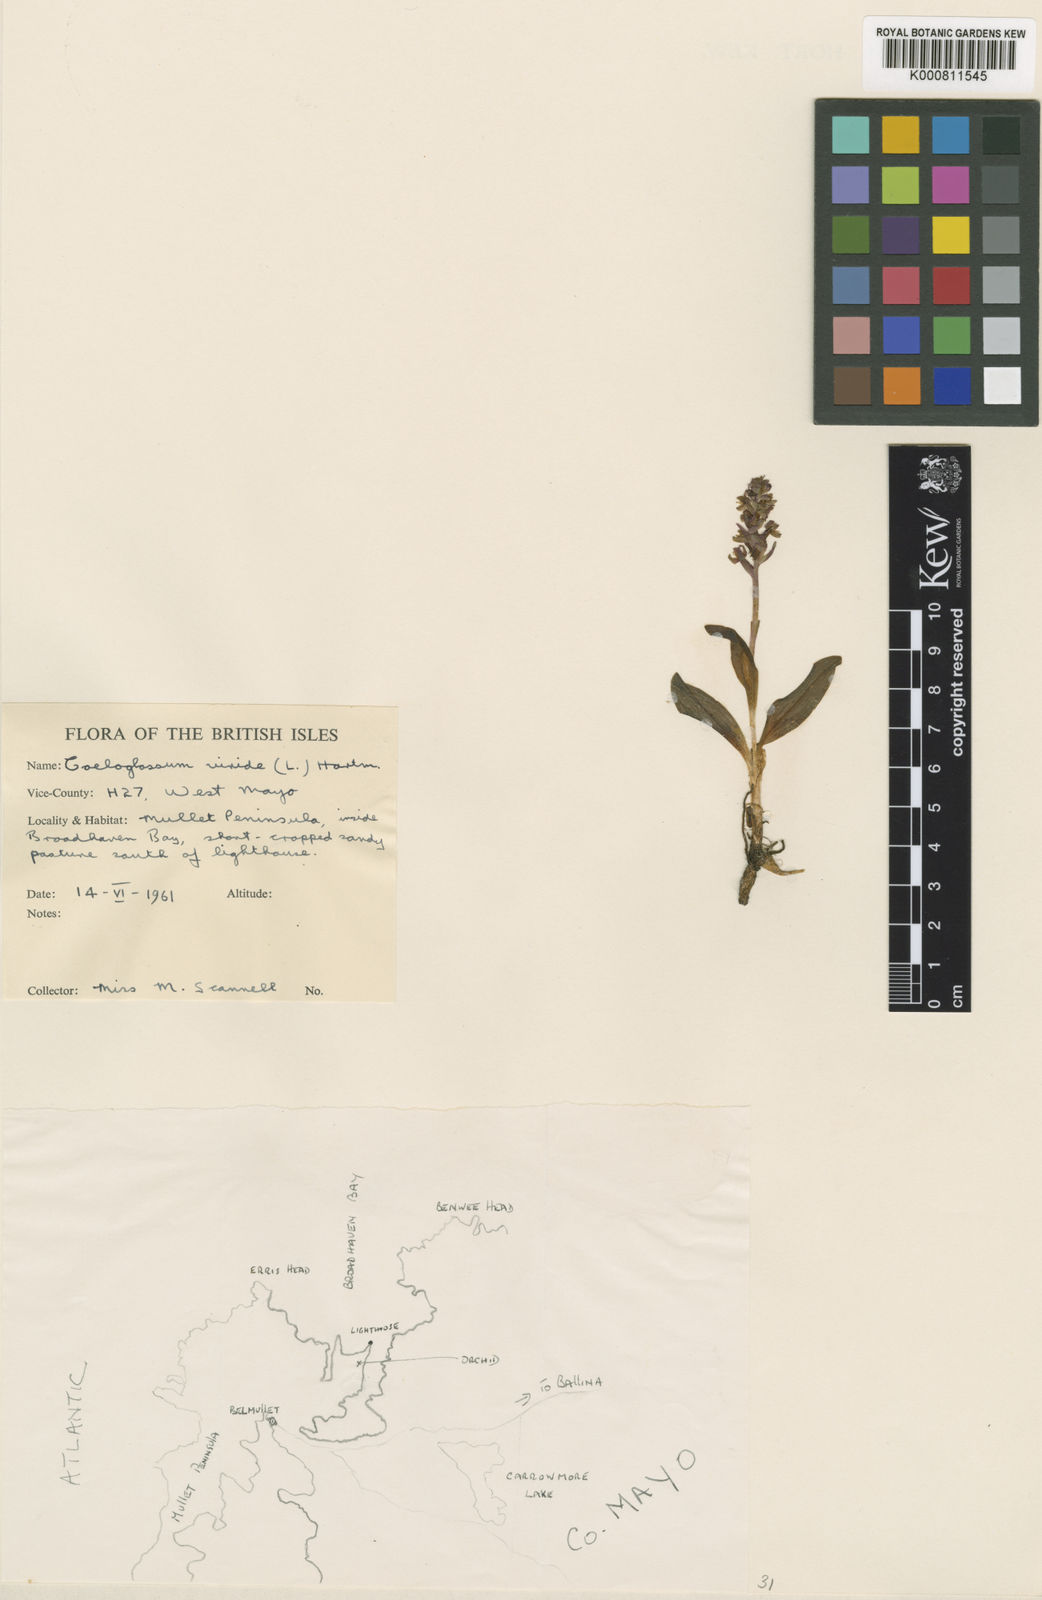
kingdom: Plantae
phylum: Tracheophyta
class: Liliopsida
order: Asparagales
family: Orchidaceae
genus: Dactylorhiza
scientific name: Dactylorhiza viridis
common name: Longbract frog orchid
